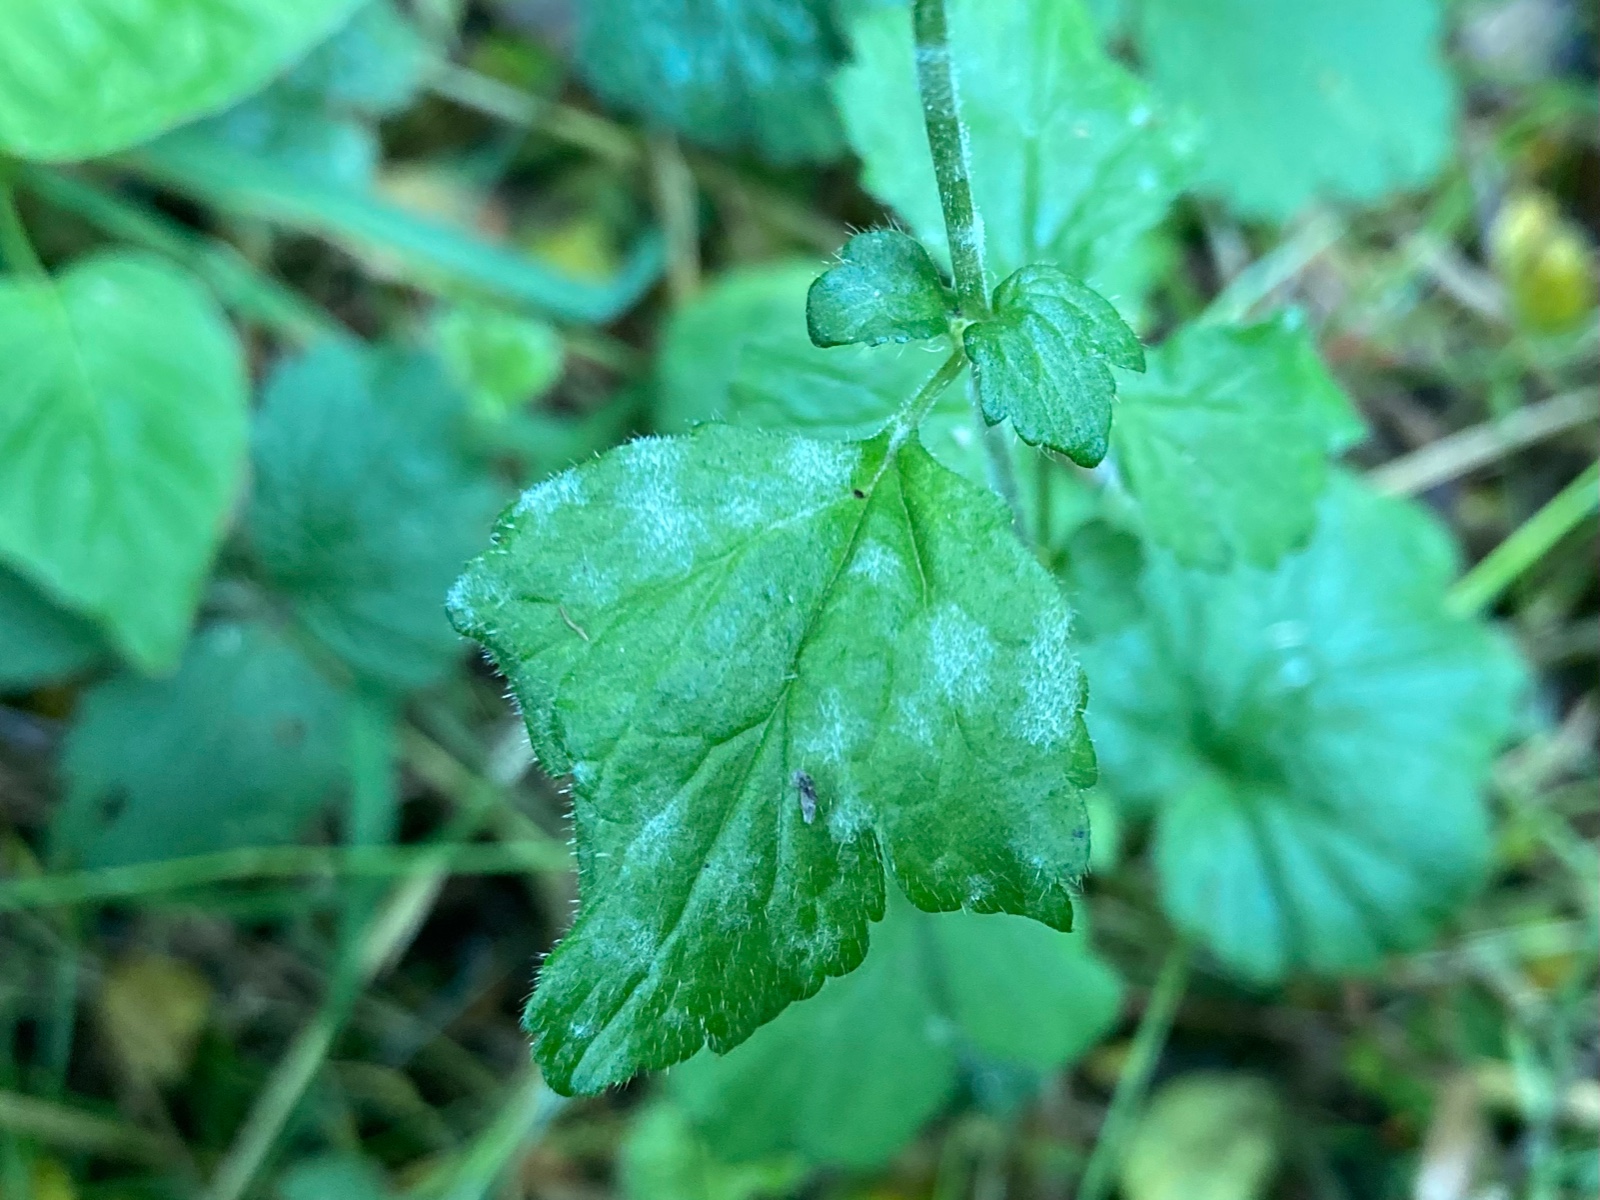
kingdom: Fungi
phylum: Ascomycota
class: Leotiomycetes
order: Helotiales
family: Erysiphaceae
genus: Podosphaera
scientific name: Podosphaera aphanis
